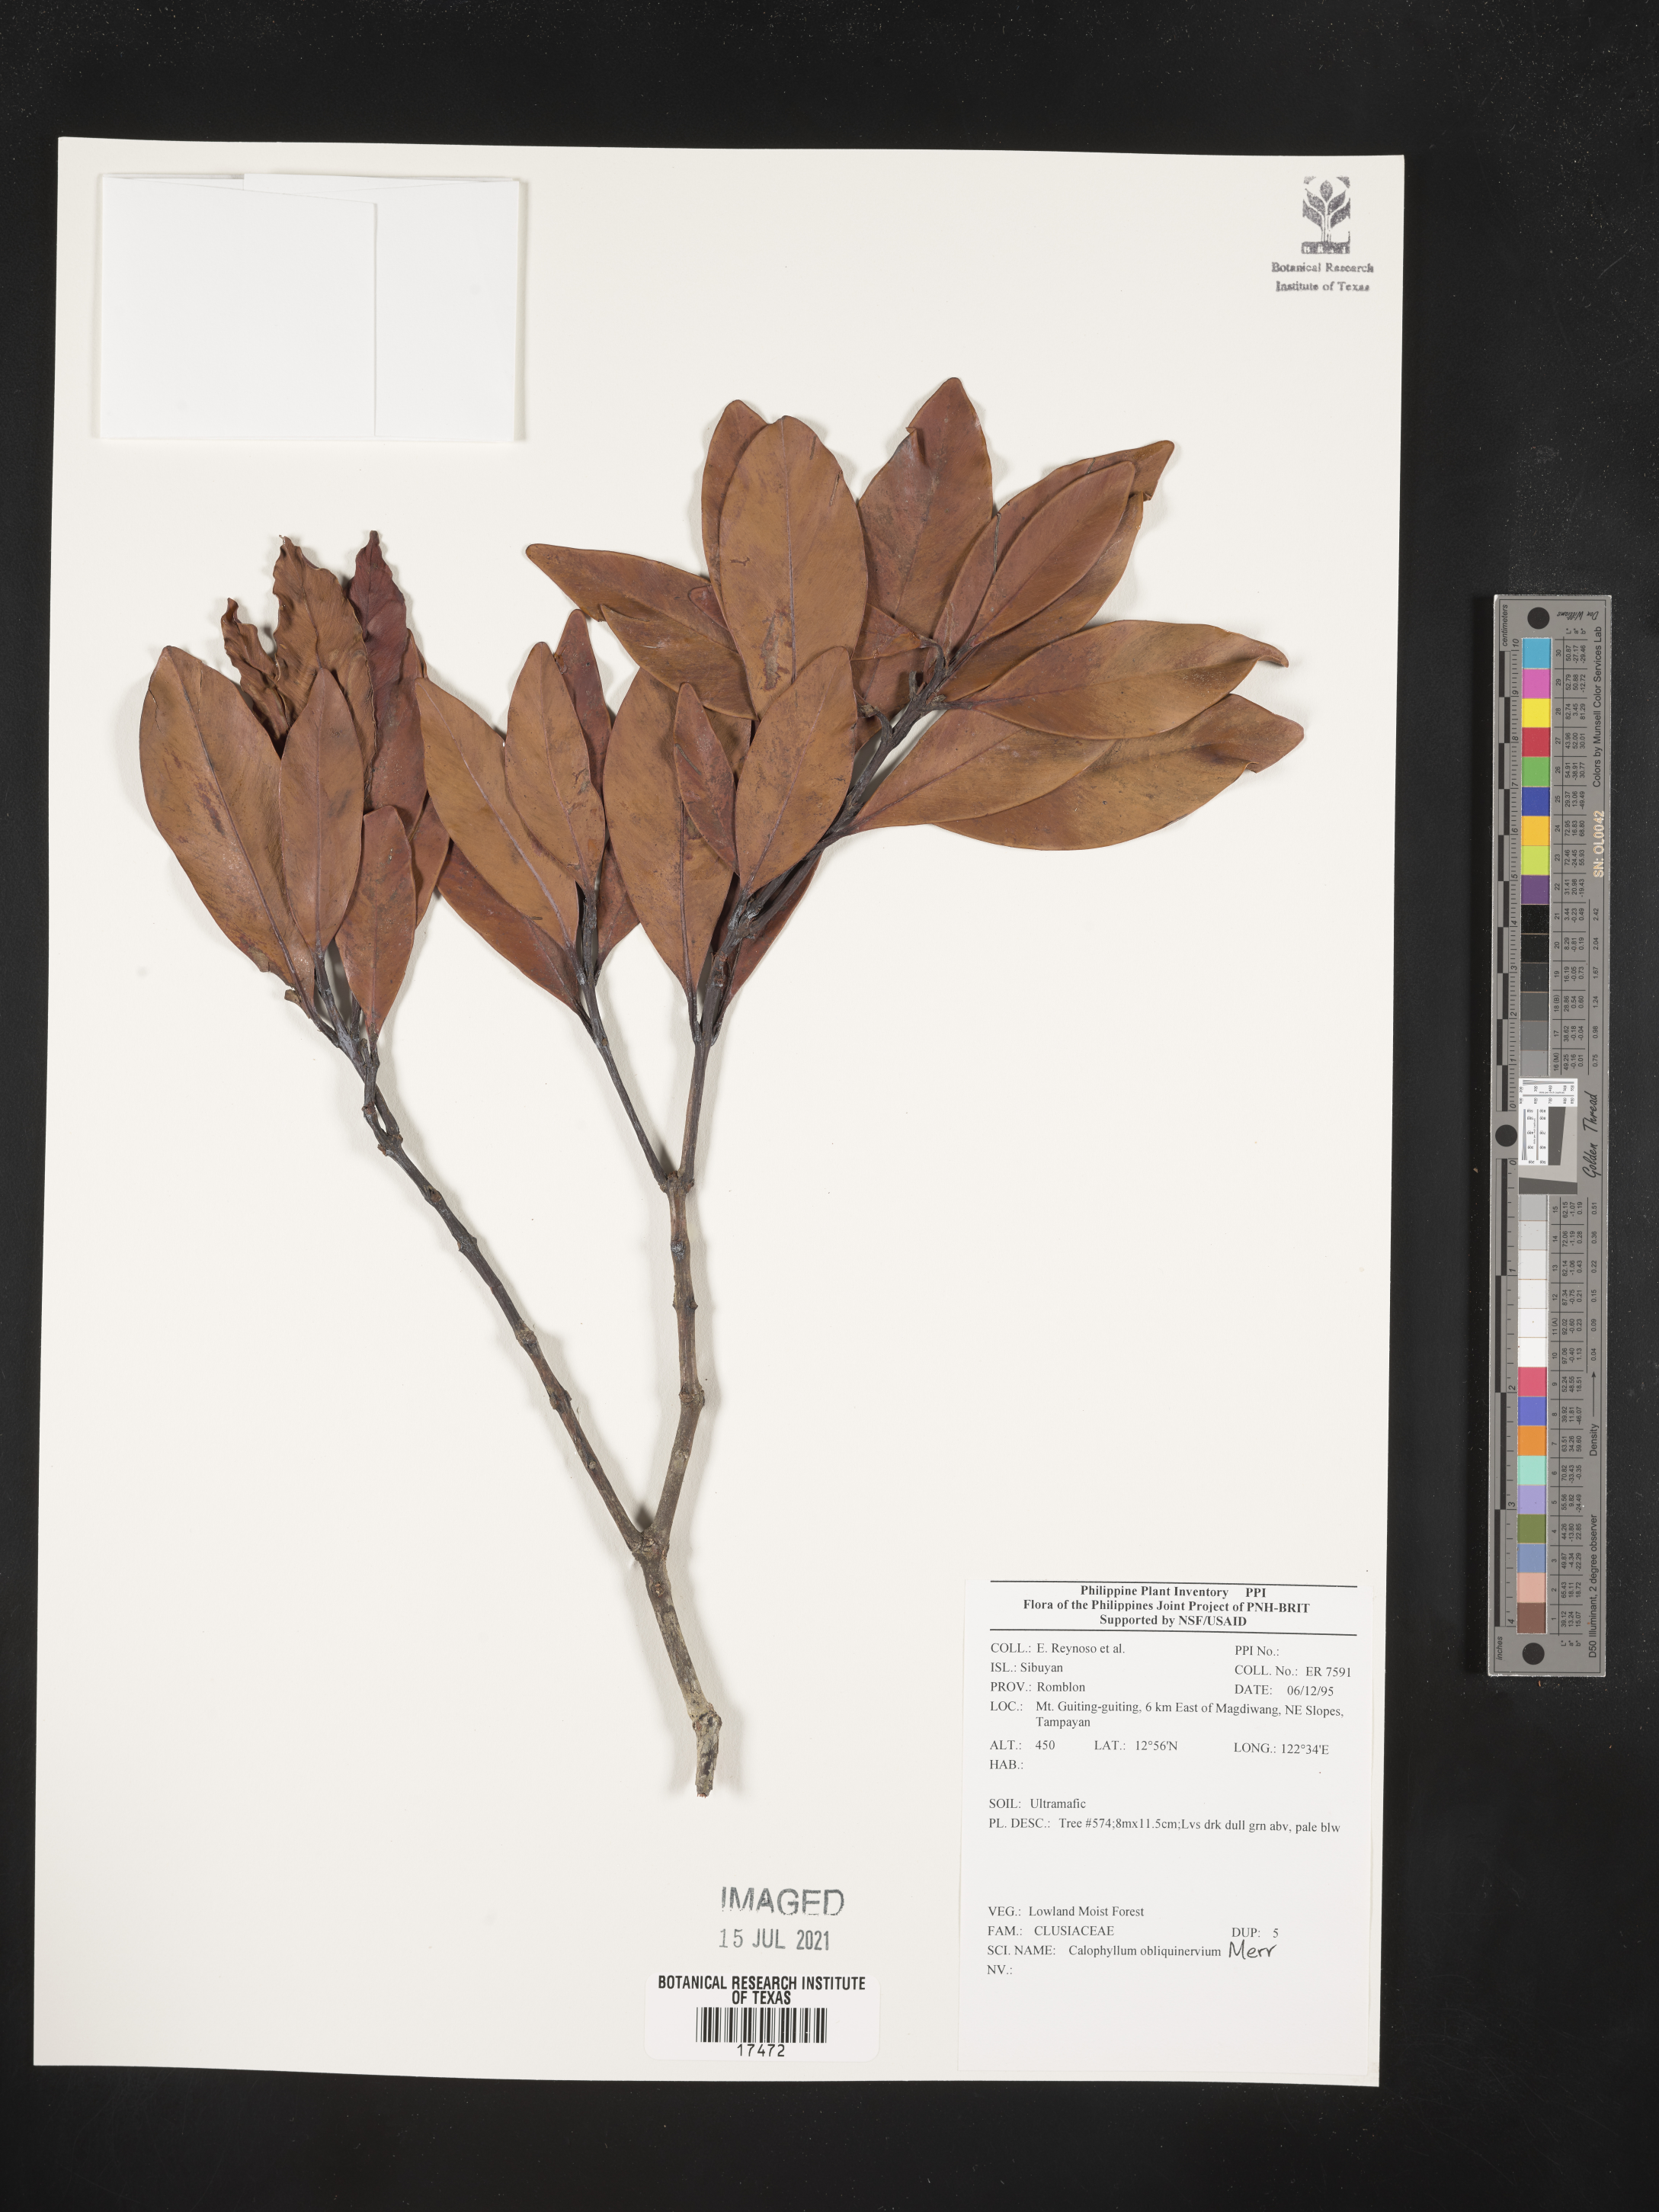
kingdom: Plantae
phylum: Tracheophyta
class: Magnoliopsida
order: Malpighiales
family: Calophyllaceae
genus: Calophyllum
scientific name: Calophyllum obliquinervium
